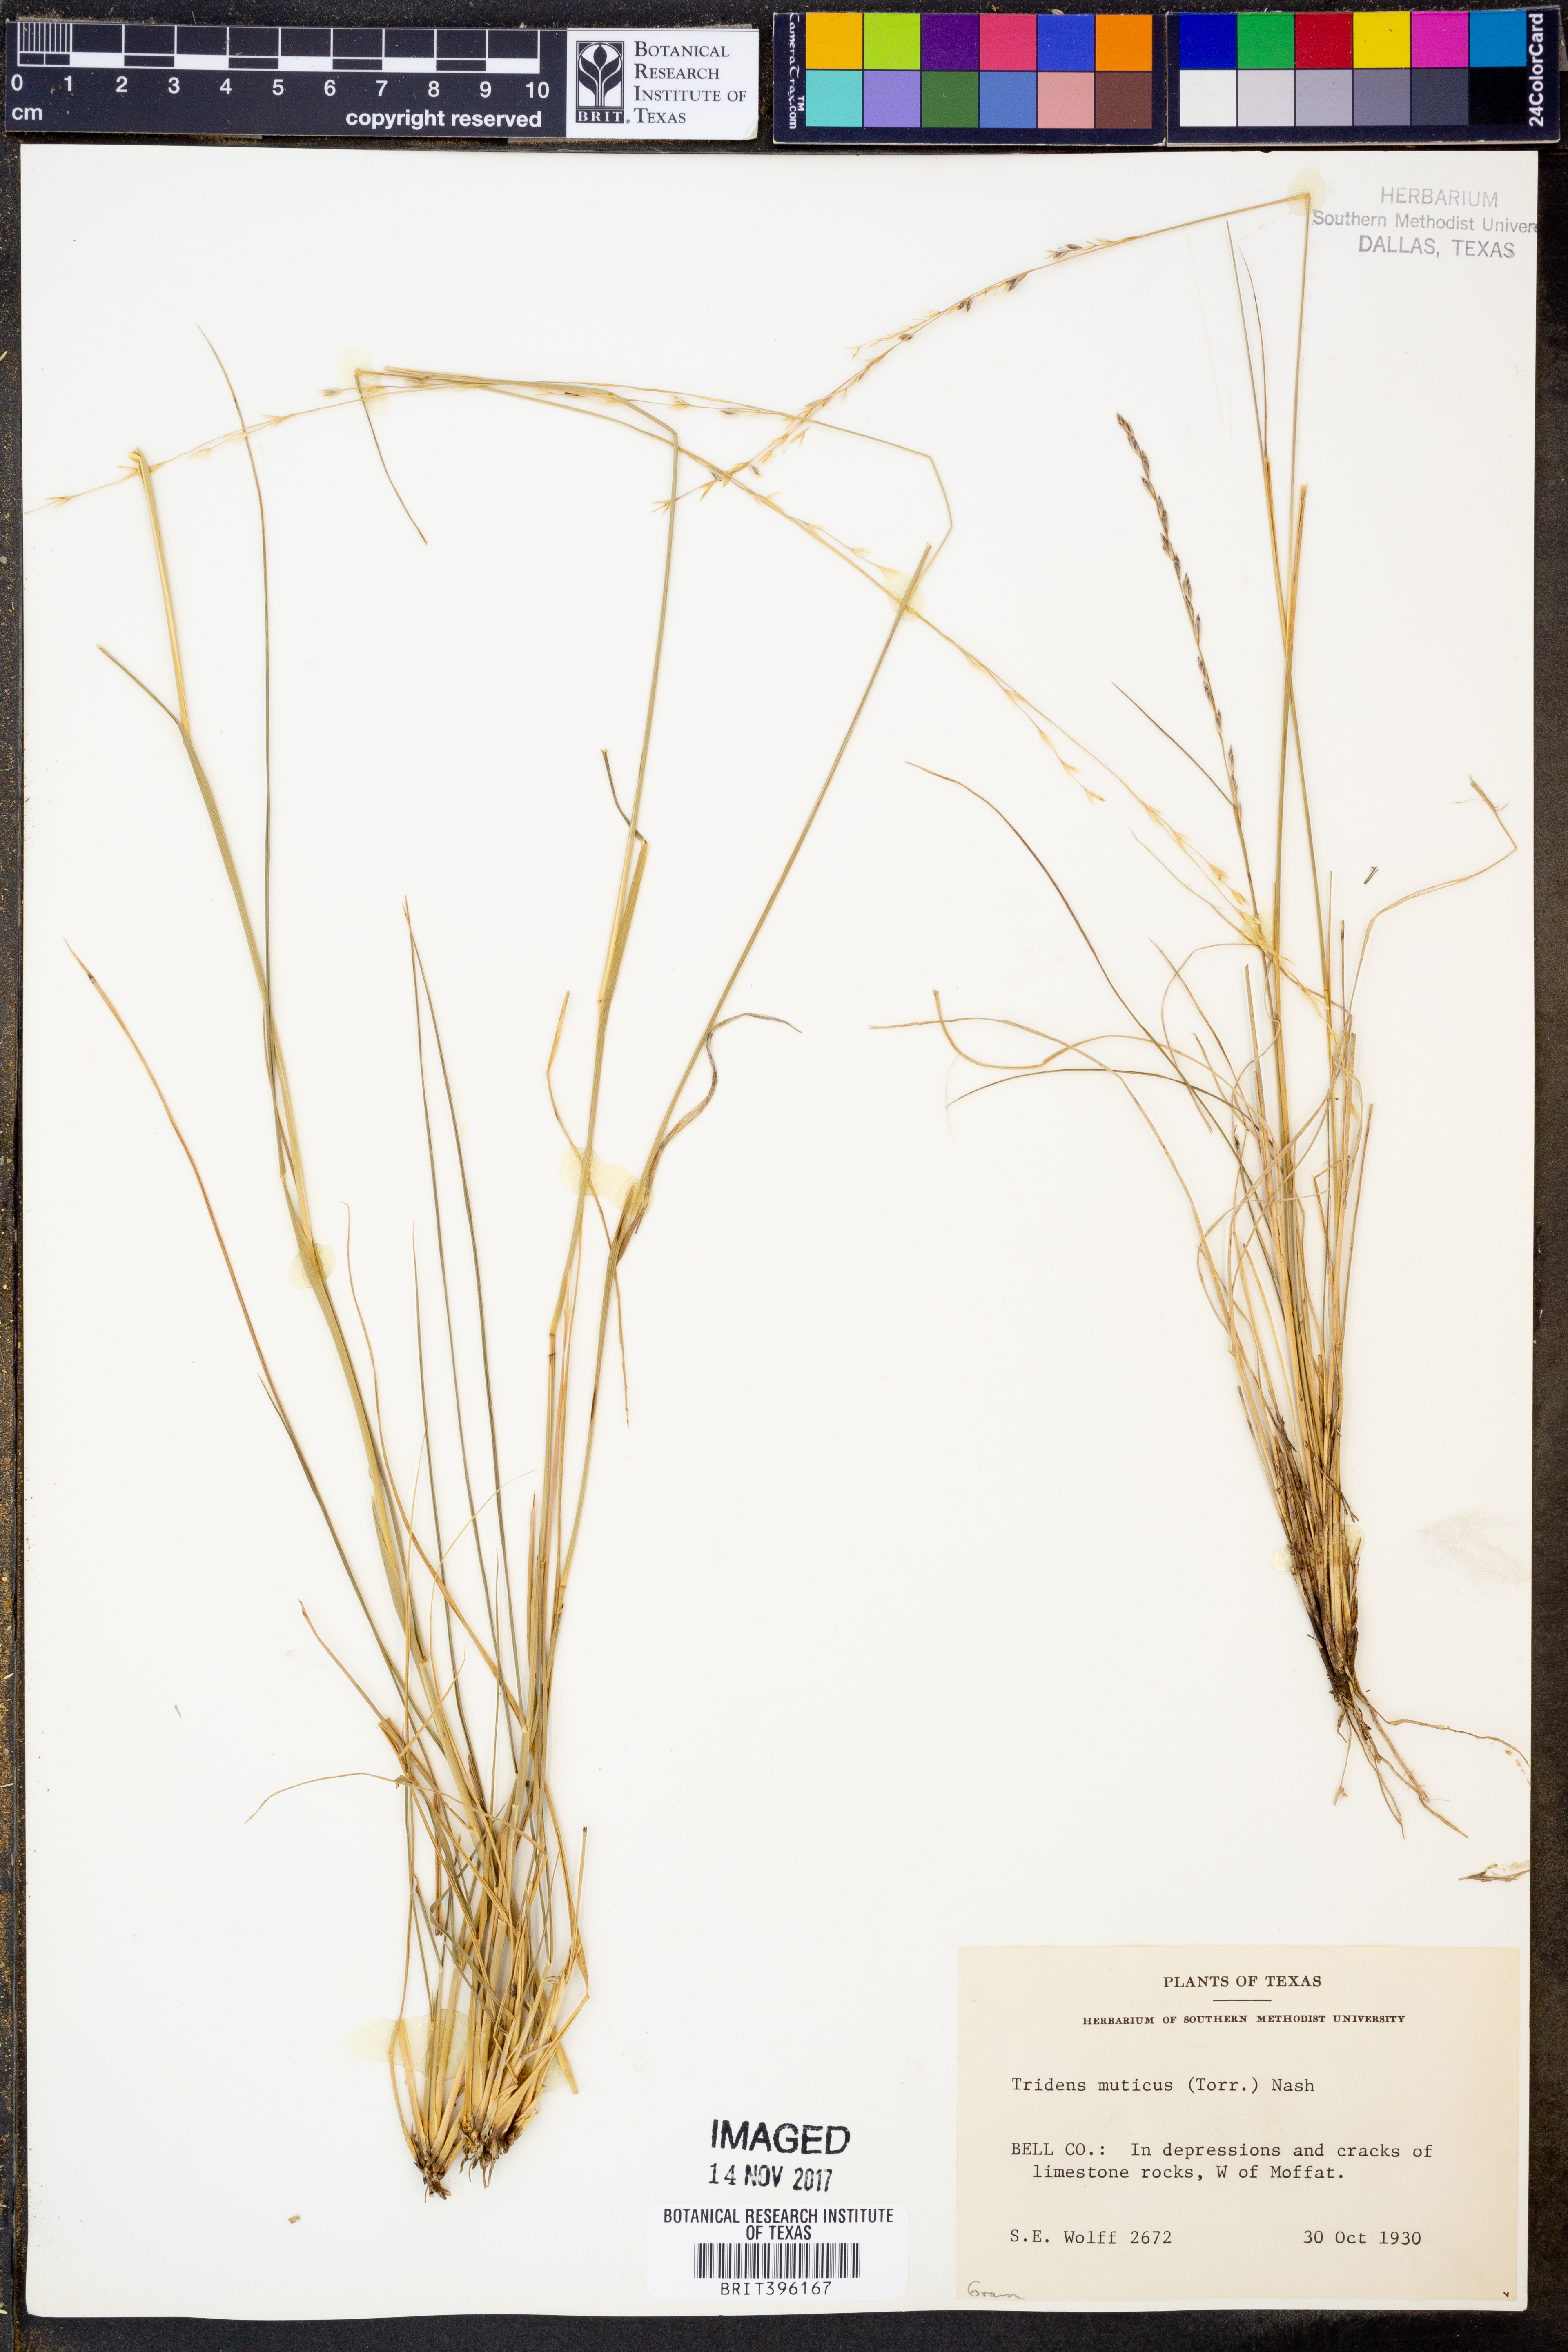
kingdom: Plantae
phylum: Tracheophyta
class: Liliopsida
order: Poales
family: Poaceae
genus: Tridentopsis
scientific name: Tridentopsis mutica
